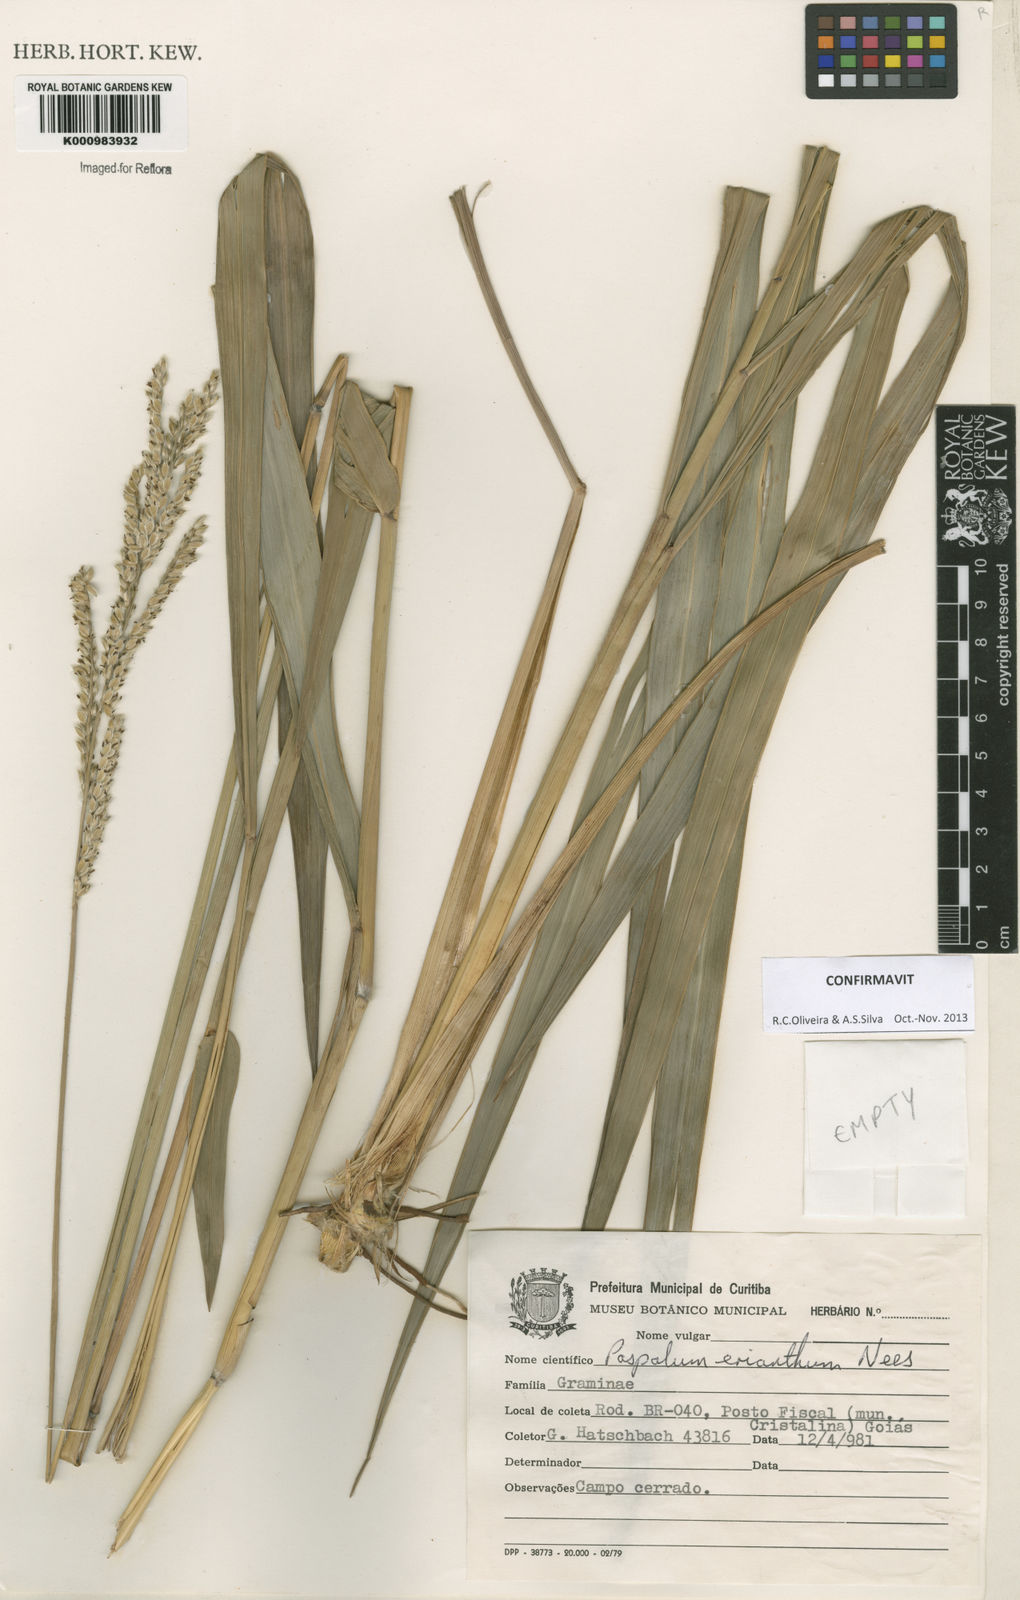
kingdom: Plantae
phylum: Tracheophyta
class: Liliopsida
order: Poales
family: Poaceae
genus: Paspalum
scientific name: Paspalum erianthum
